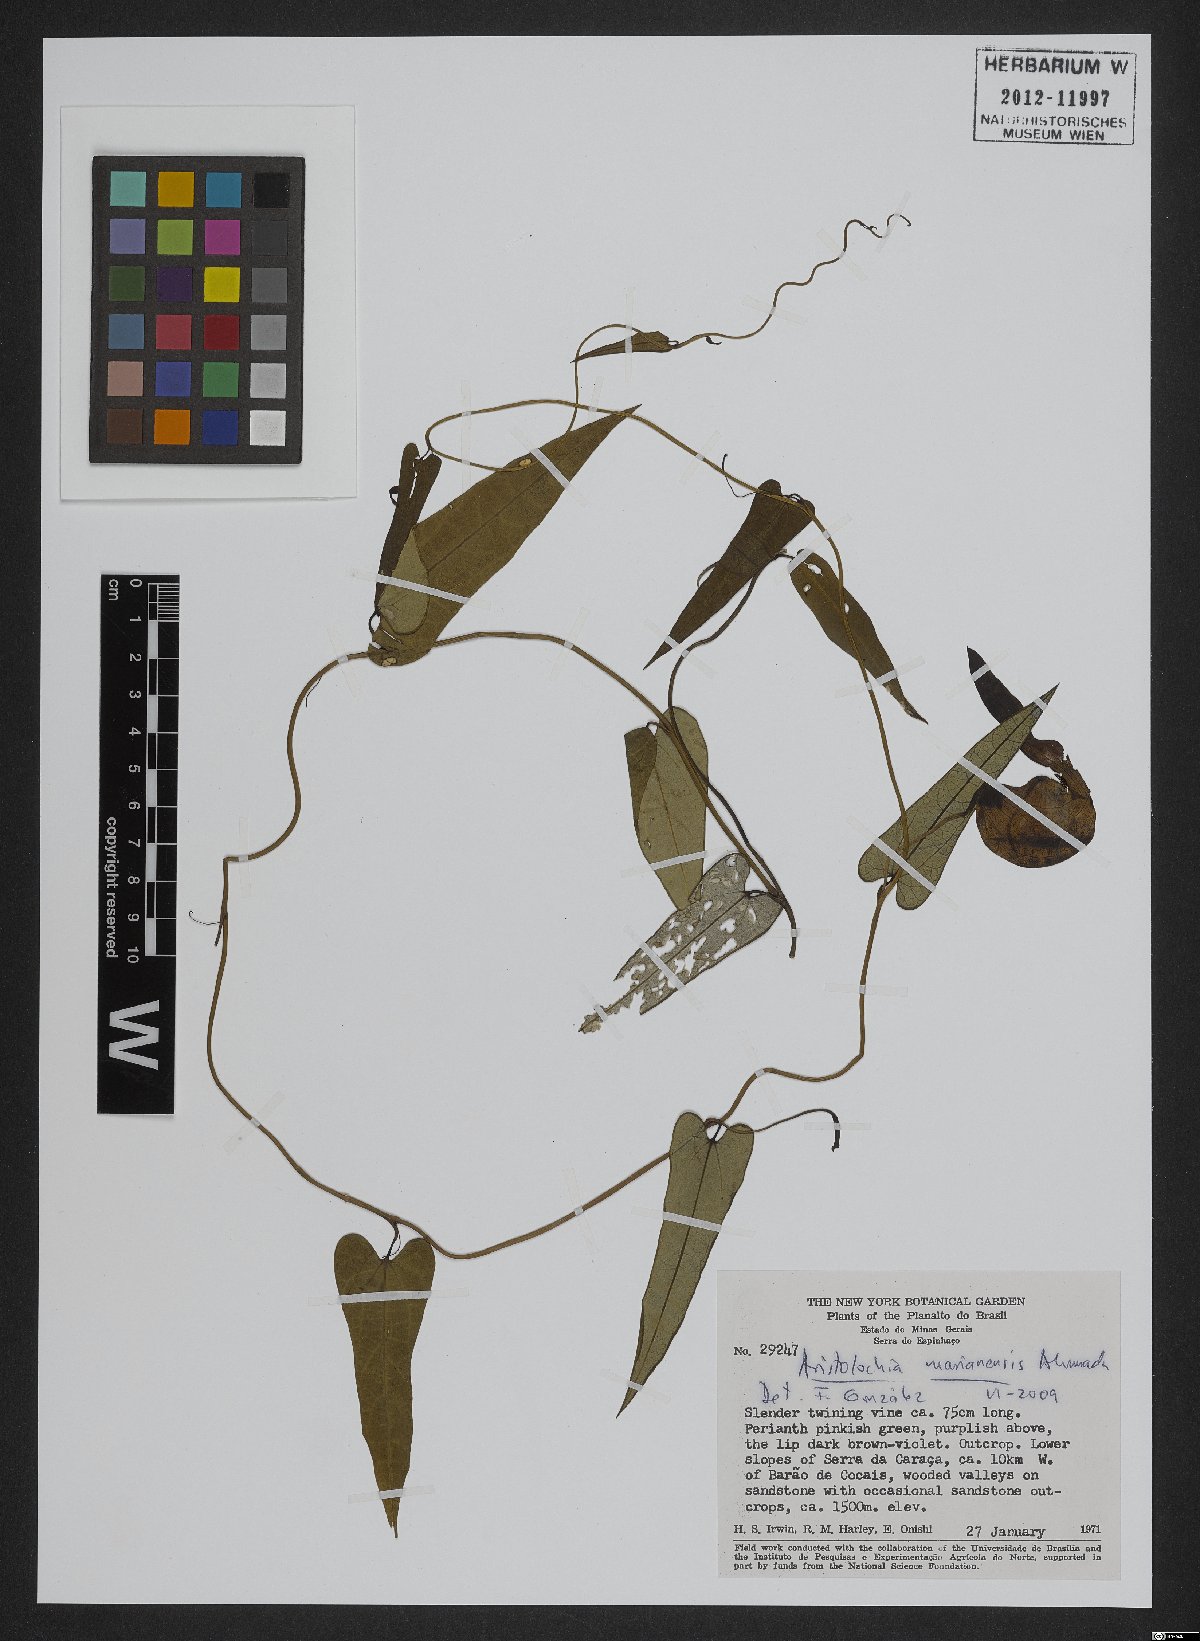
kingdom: Plantae
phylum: Tracheophyta
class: Magnoliopsida
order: Piperales
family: Aristolochiaceae
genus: Aristolochia
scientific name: Aristolochia marianensis
